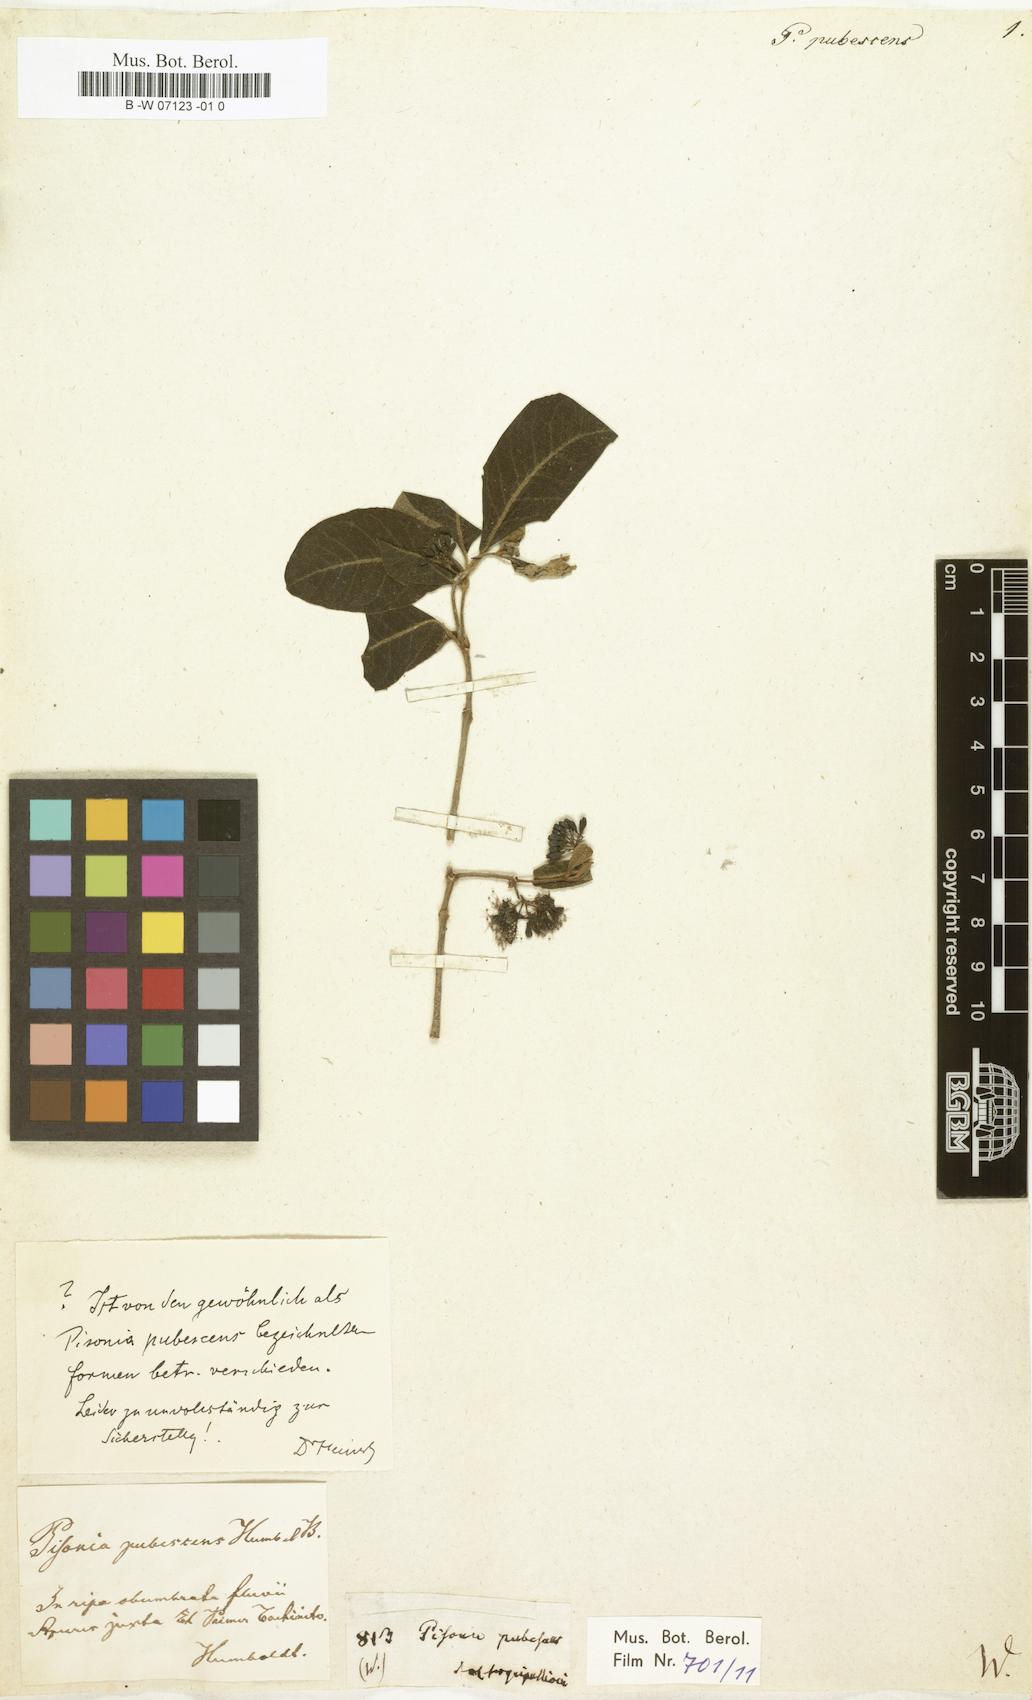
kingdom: Plantae
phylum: Tracheophyta
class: Magnoliopsida
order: Caryophyllales
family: Nyctaginaceae
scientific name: Nyctaginaceae
